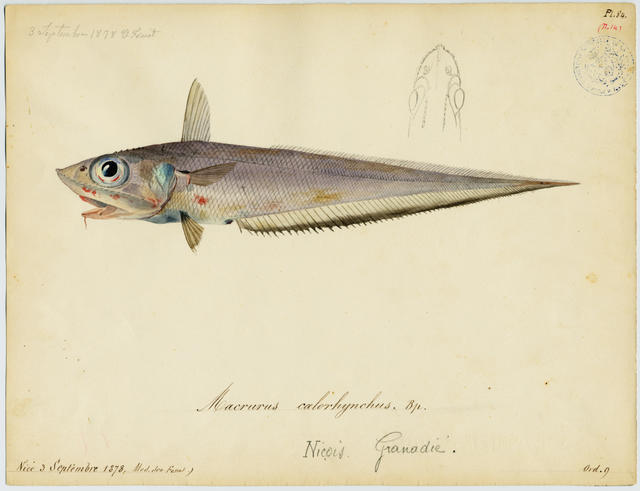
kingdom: Animalia
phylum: Chordata
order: Gadiformes
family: Macrouridae
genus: Coelorinchus
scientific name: Coelorinchus caelorhincus
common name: Blackspot grenadier
